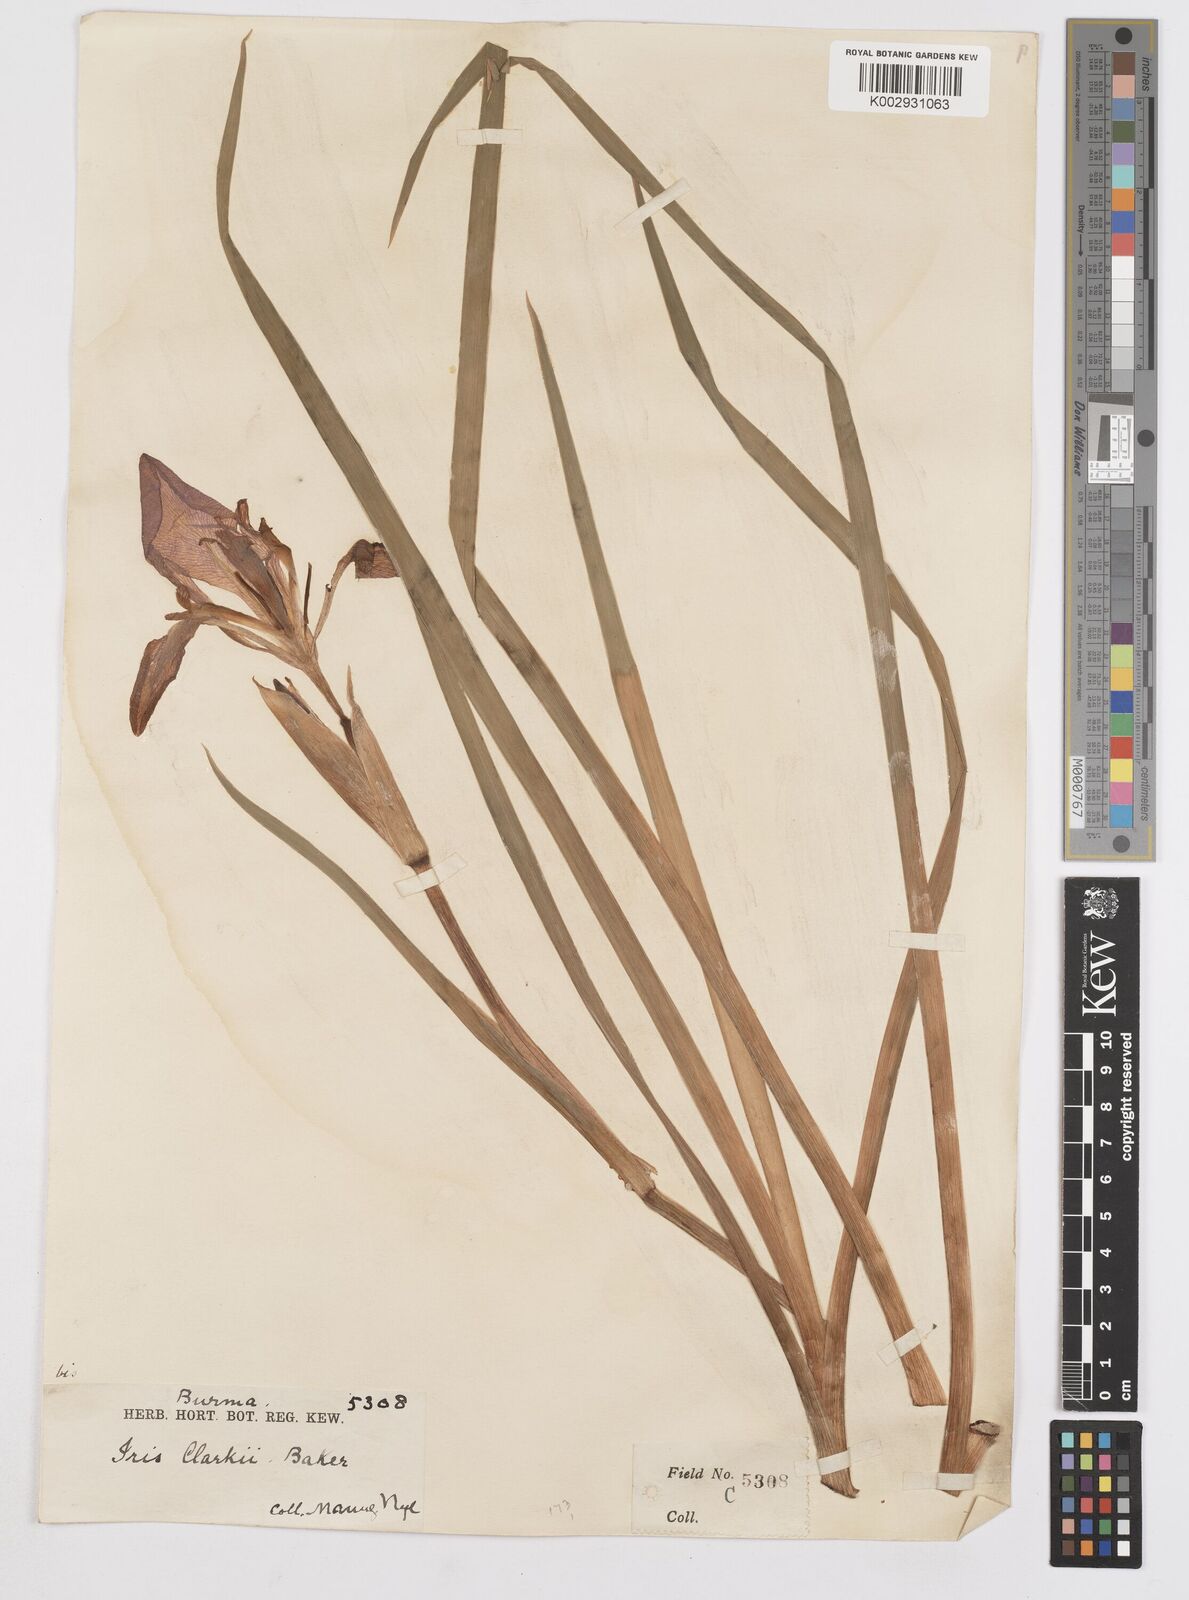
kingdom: Plantae
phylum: Tracheophyta
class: Liliopsida
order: Asparagales
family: Iridaceae
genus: Iris
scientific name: Iris clarkei
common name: Tibet iris
